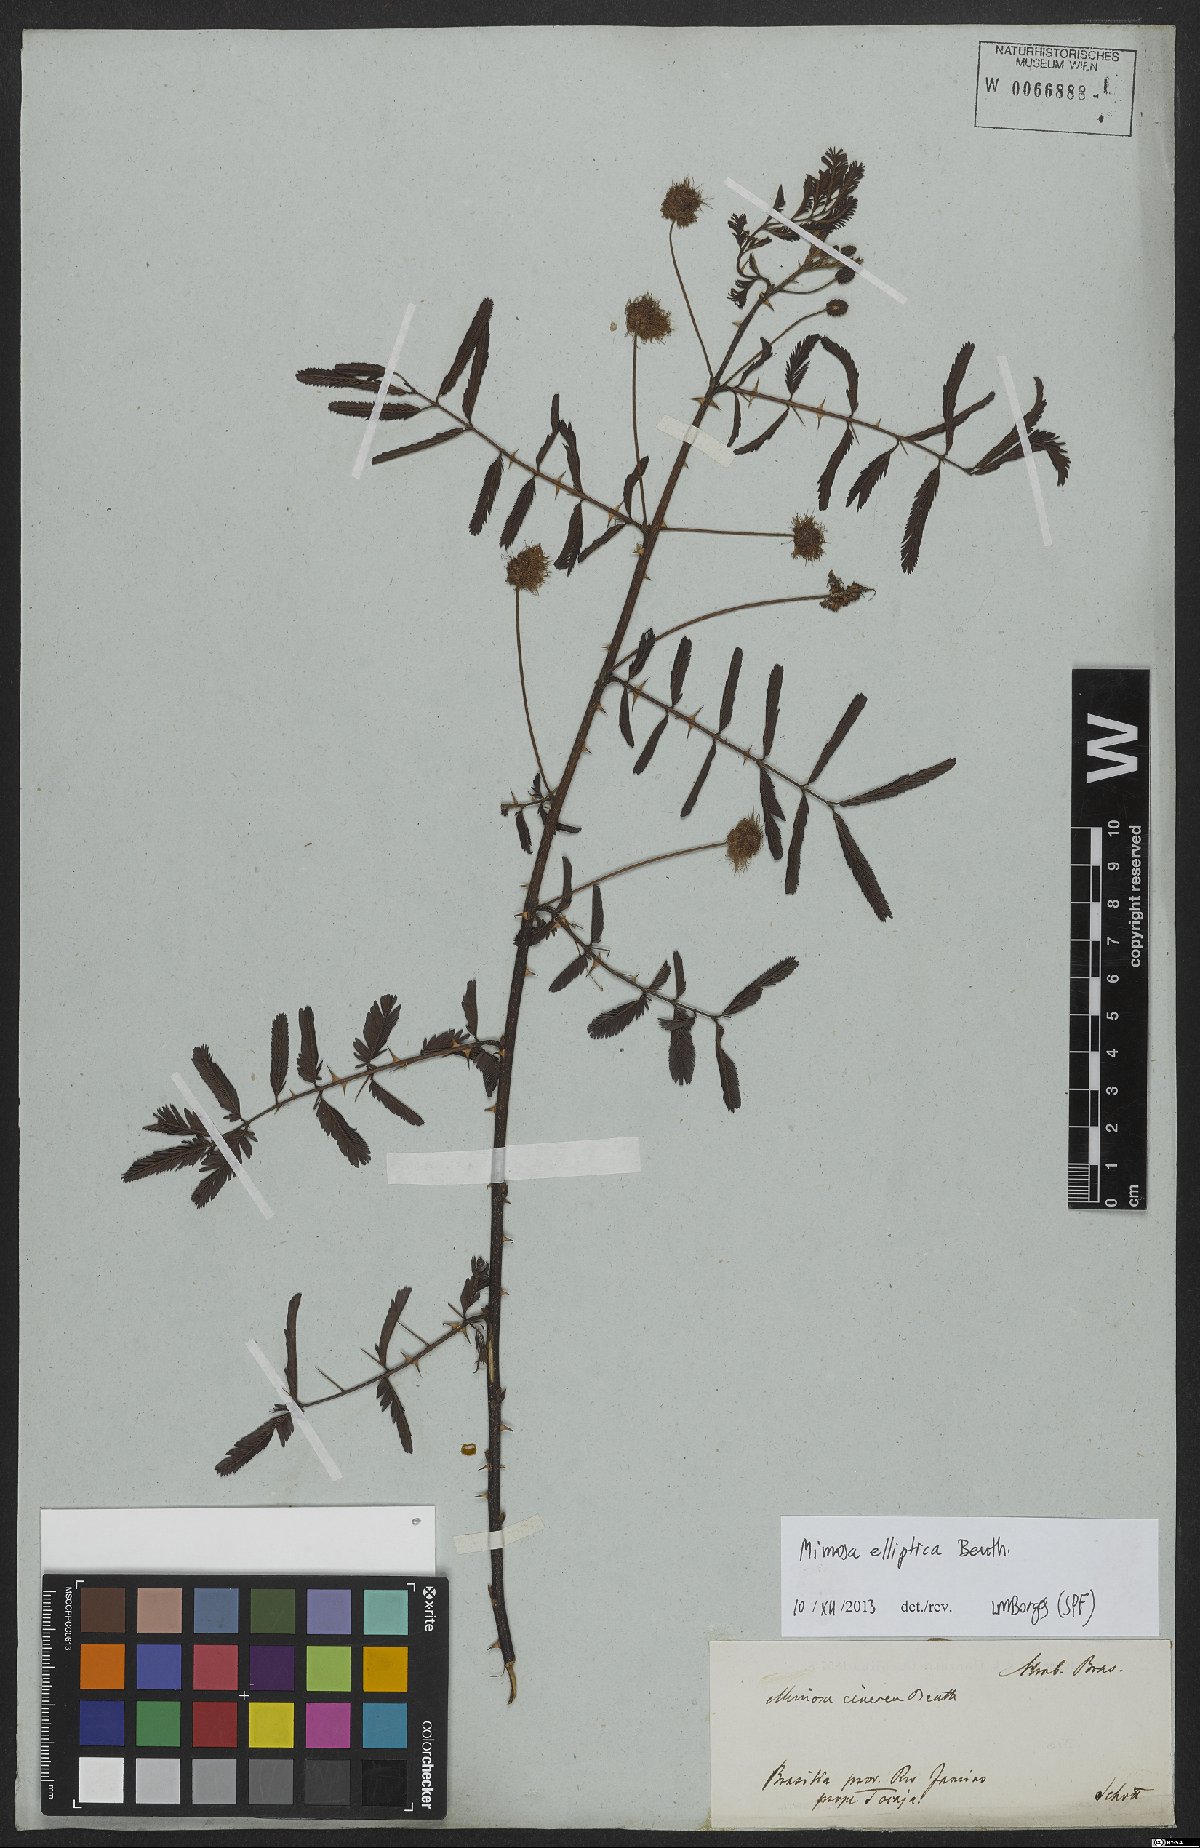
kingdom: Plantae
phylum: Tracheophyta
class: Magnoliopsida
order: Fabales
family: Fabaceae
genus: Mimosa
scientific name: Mimosa elliptica
